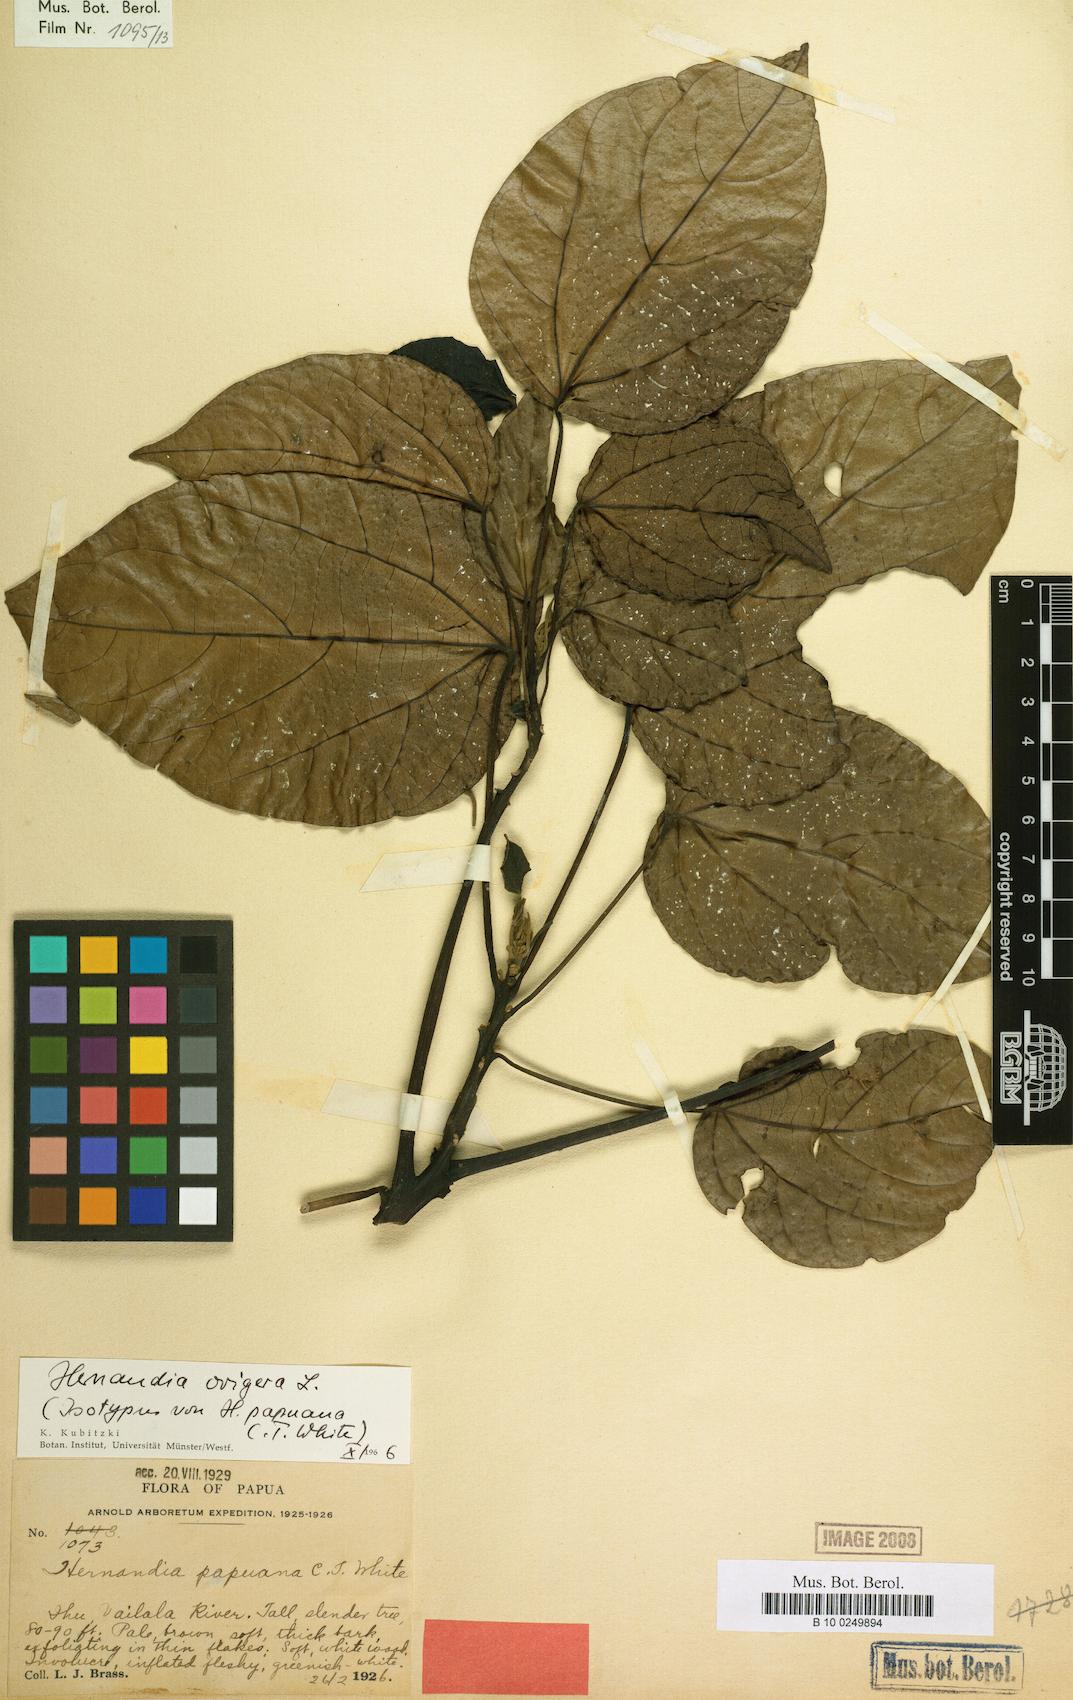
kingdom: Plantae
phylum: Tracheophyta
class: Magnoliopsida
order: Laurales
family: Hernandiaceae
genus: Hernandia
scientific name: Hernandia ovigera
